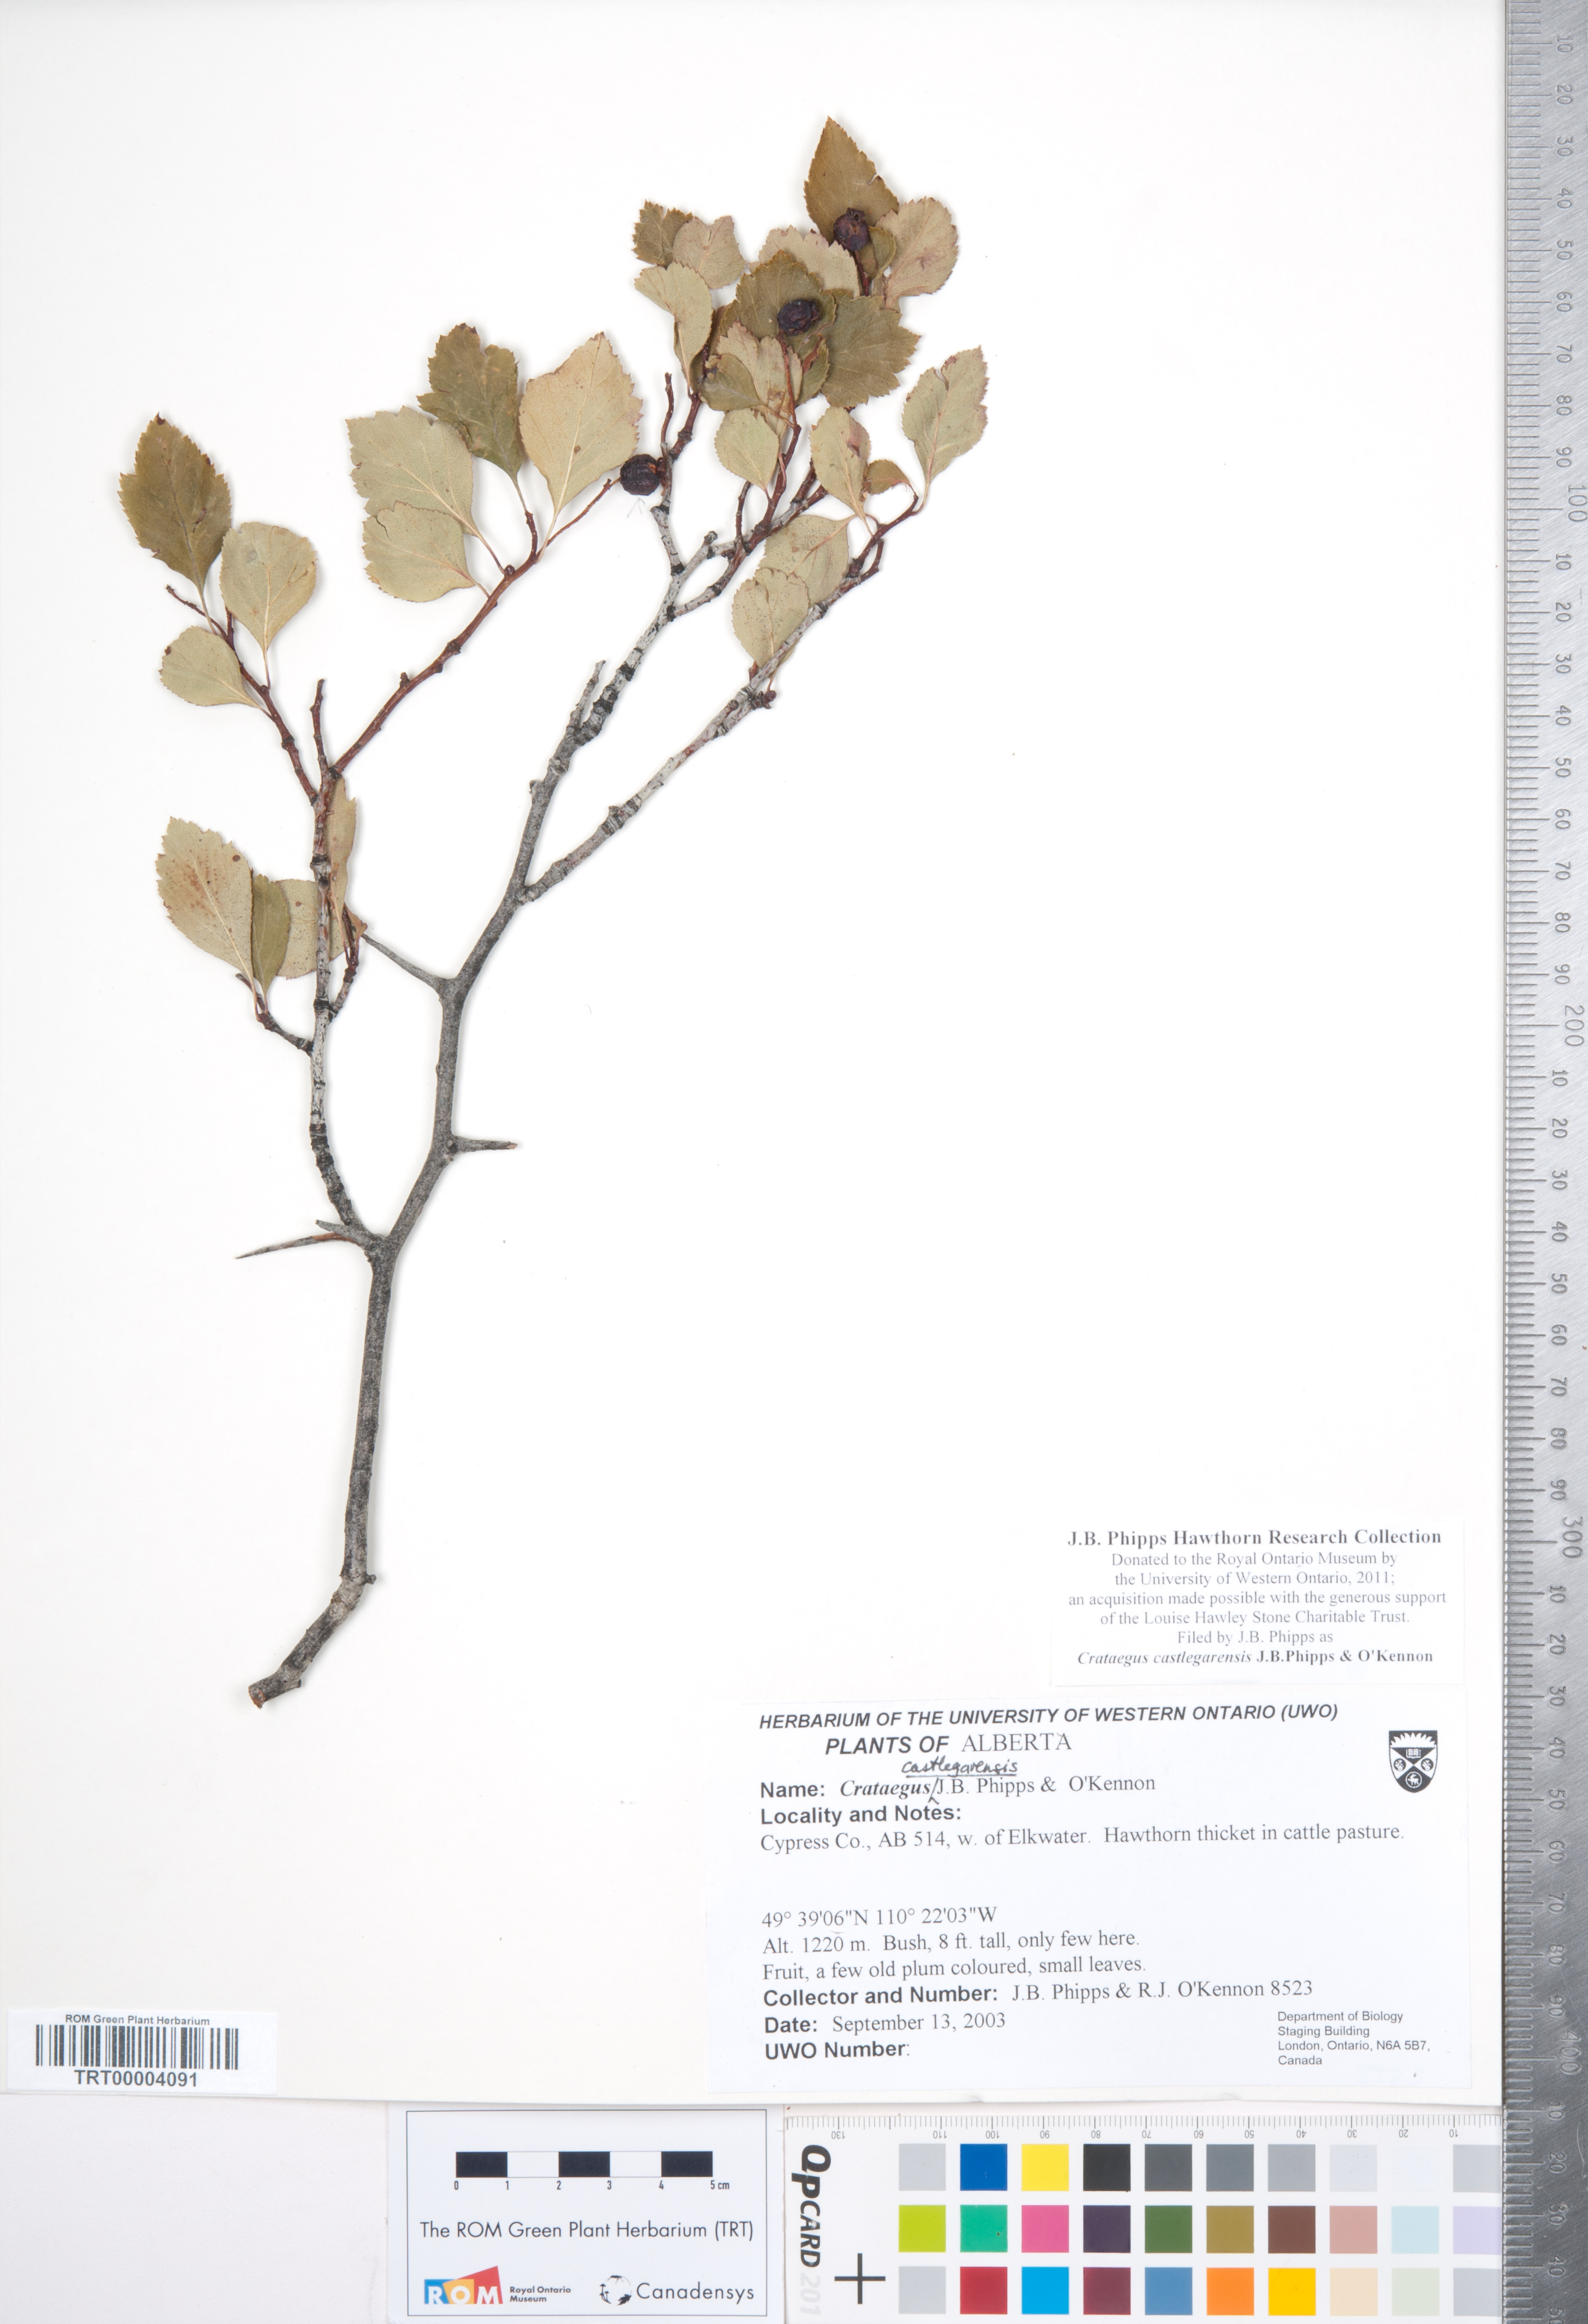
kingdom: Plantae
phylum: Tracheophyta
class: Magnoliopsida
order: Rosales
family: Rosaceae
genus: Crataegus
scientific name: Crataegus castlegarensis
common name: Castlegar hawthorn
